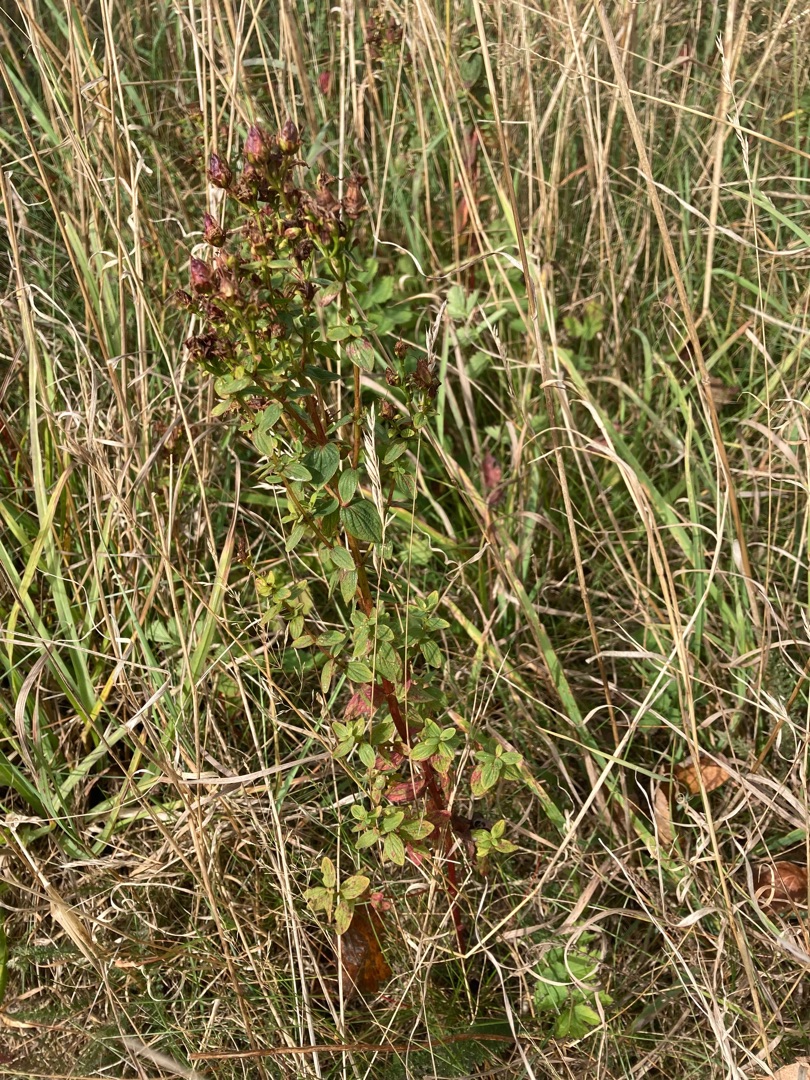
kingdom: Plantae
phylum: Tracheophyta
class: Magnoliopsida
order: Malpighiales
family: Hypericaceae
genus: Hypericum
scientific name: Hypericum maculatum
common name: Kantet perikon
